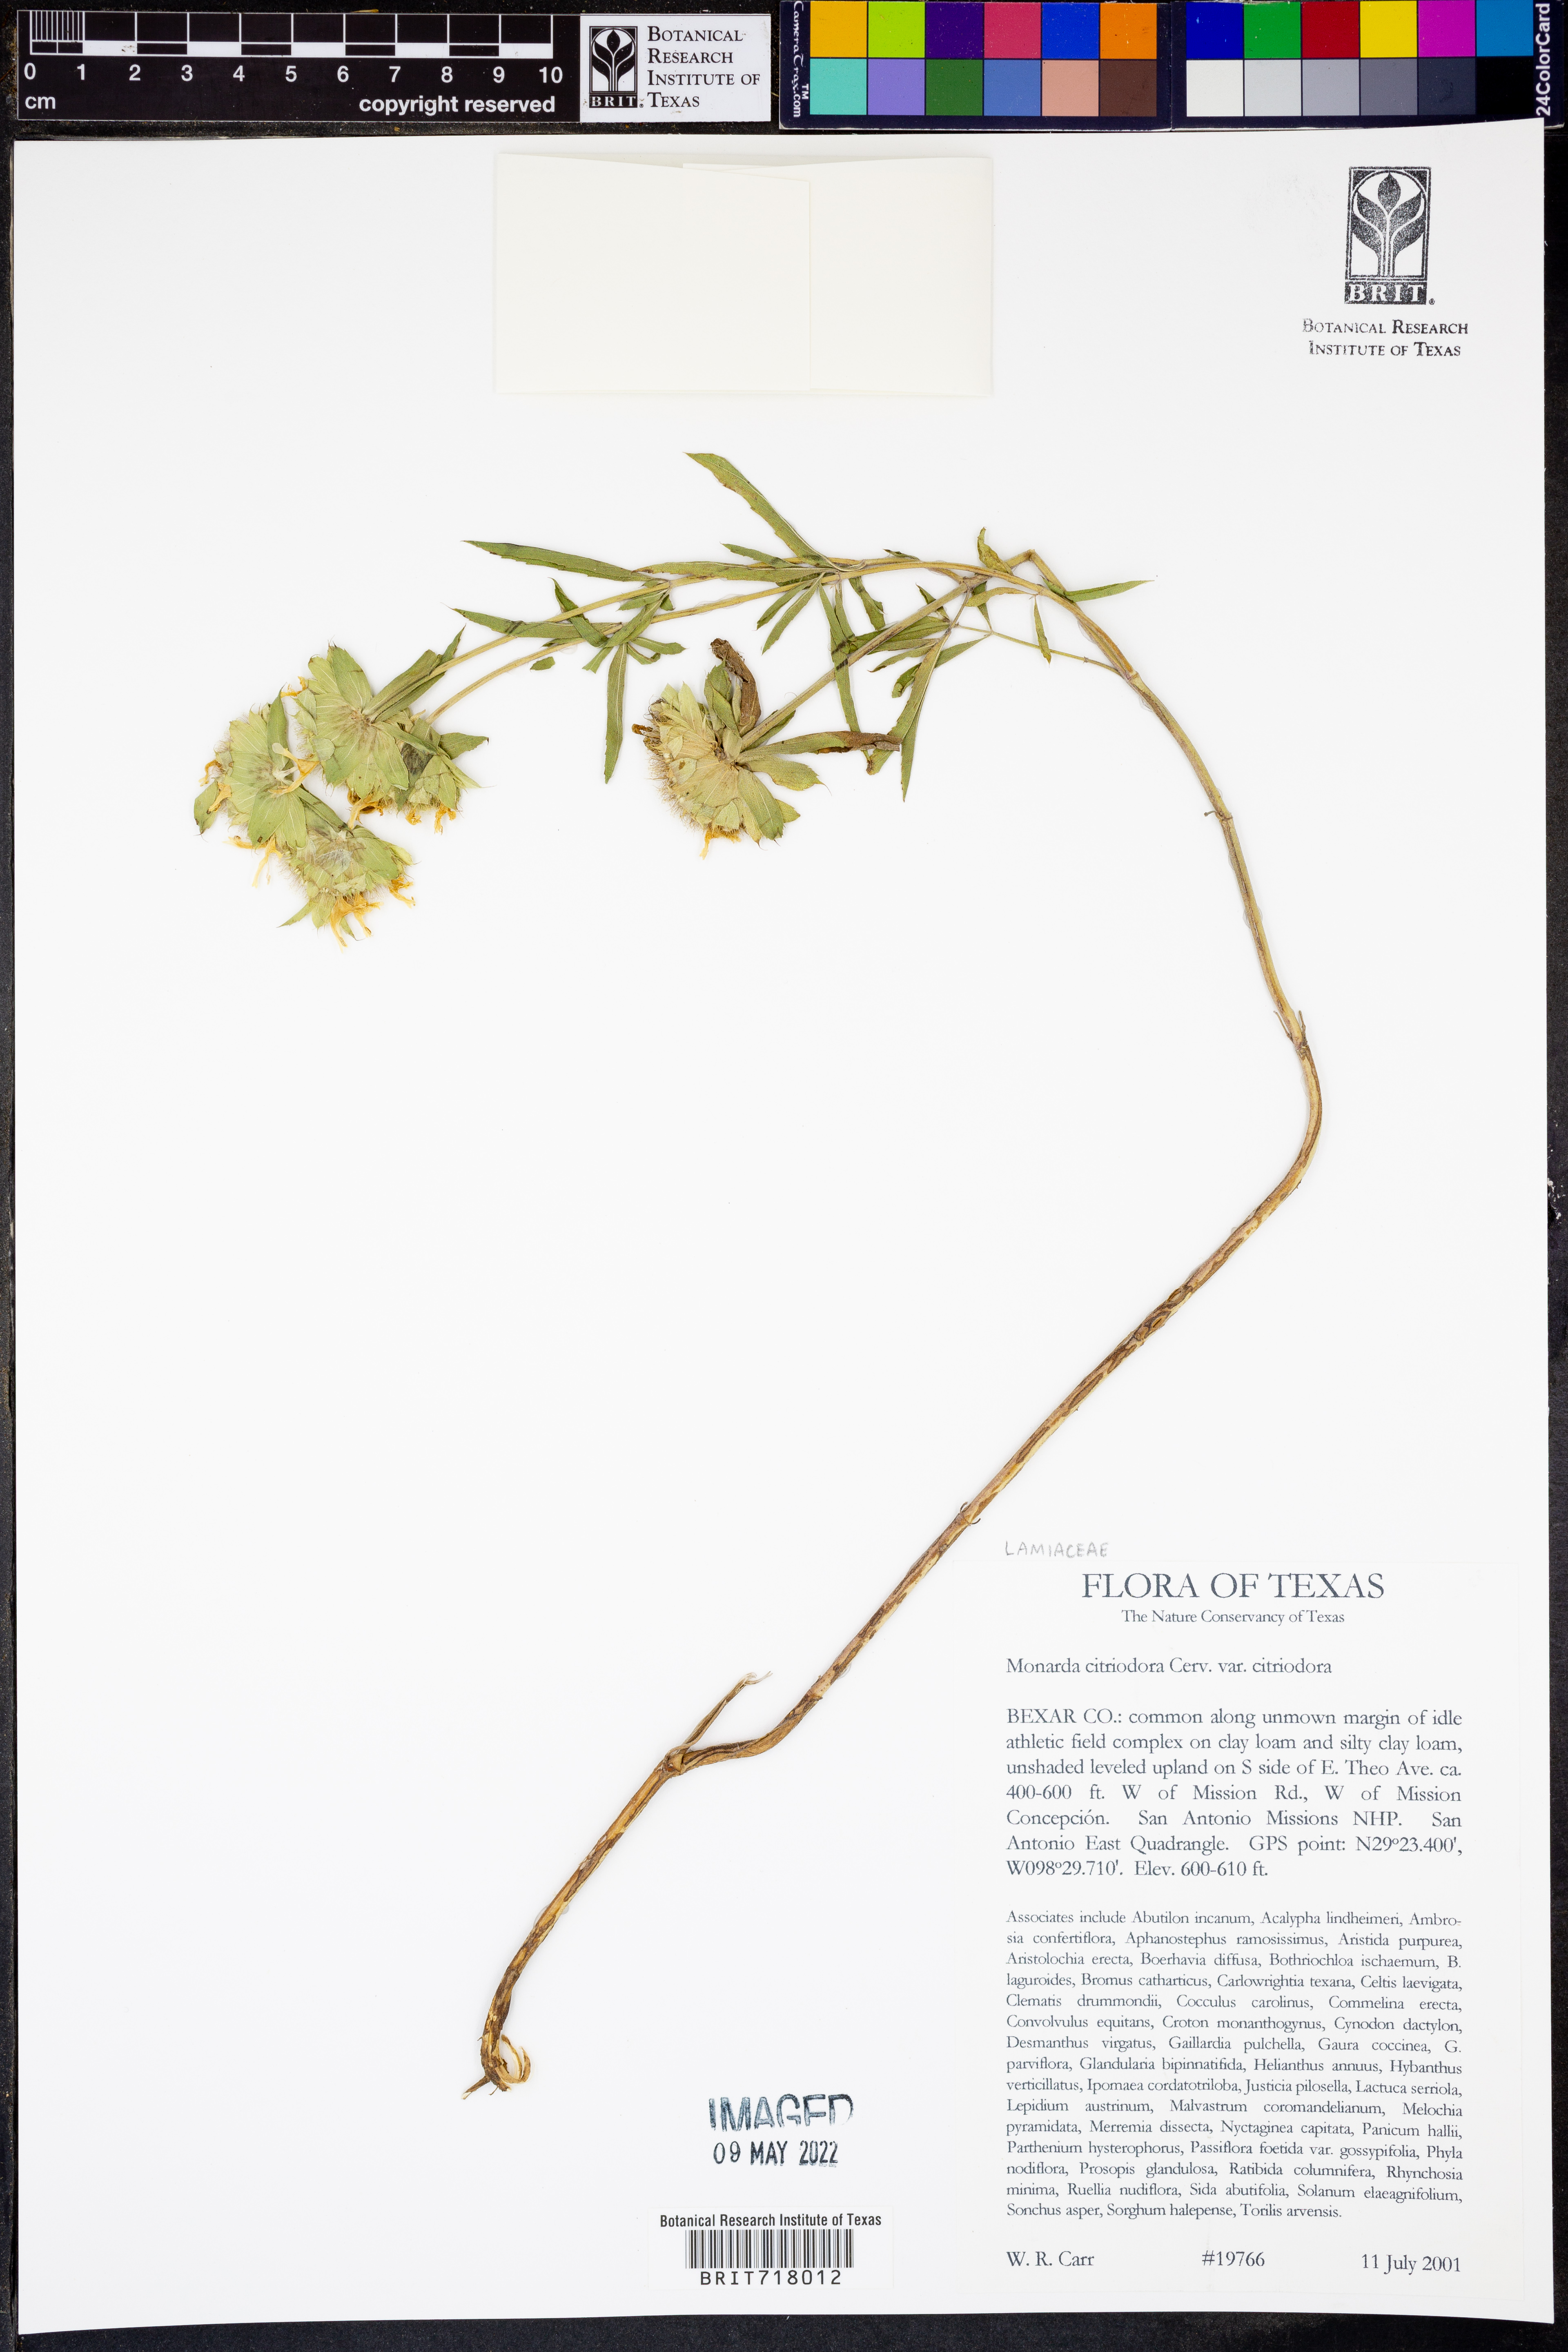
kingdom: Plantae
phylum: Tracheophyta
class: Magnoliopsida
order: Lamiales
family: Lamiaceae
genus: Monarda
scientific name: Monarda citriodora
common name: Lemon beebalm
